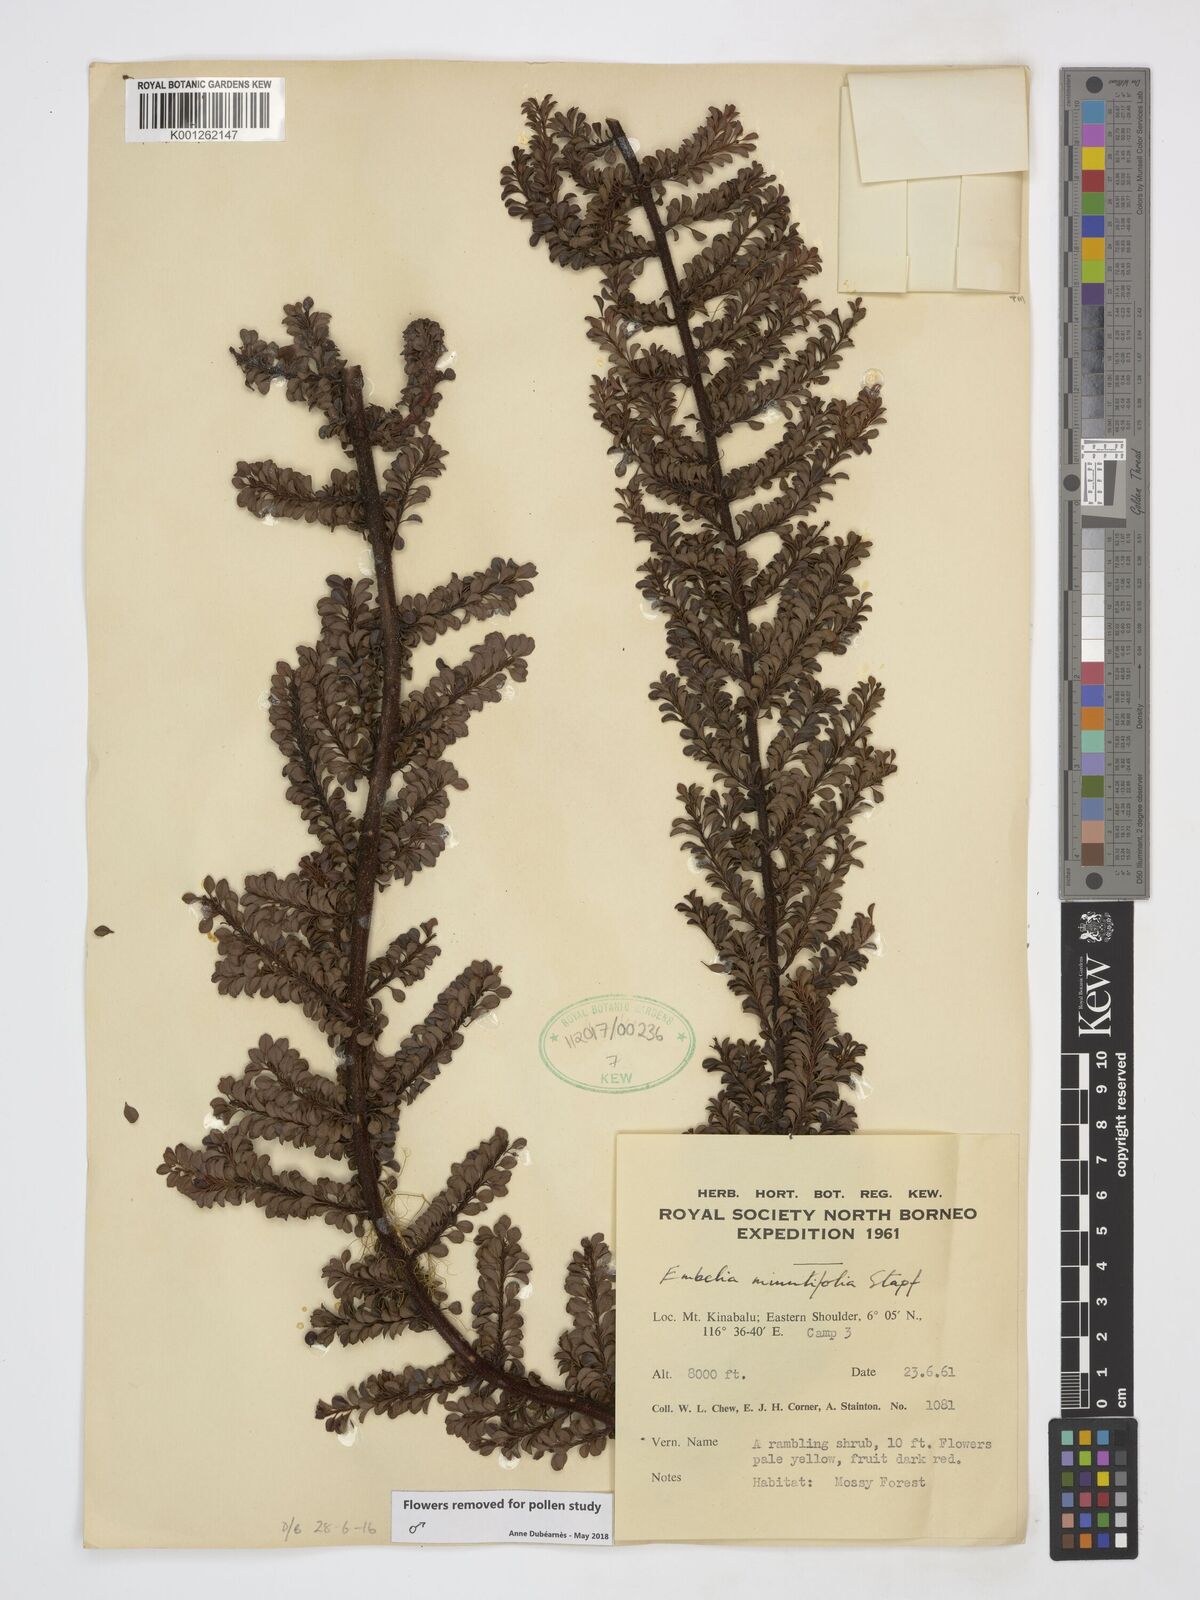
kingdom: Plantae
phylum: Tracheophyta
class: Magnoliopsida
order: Ericales
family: Primulaceae
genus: Embelia
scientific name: Embelia minutifolia
